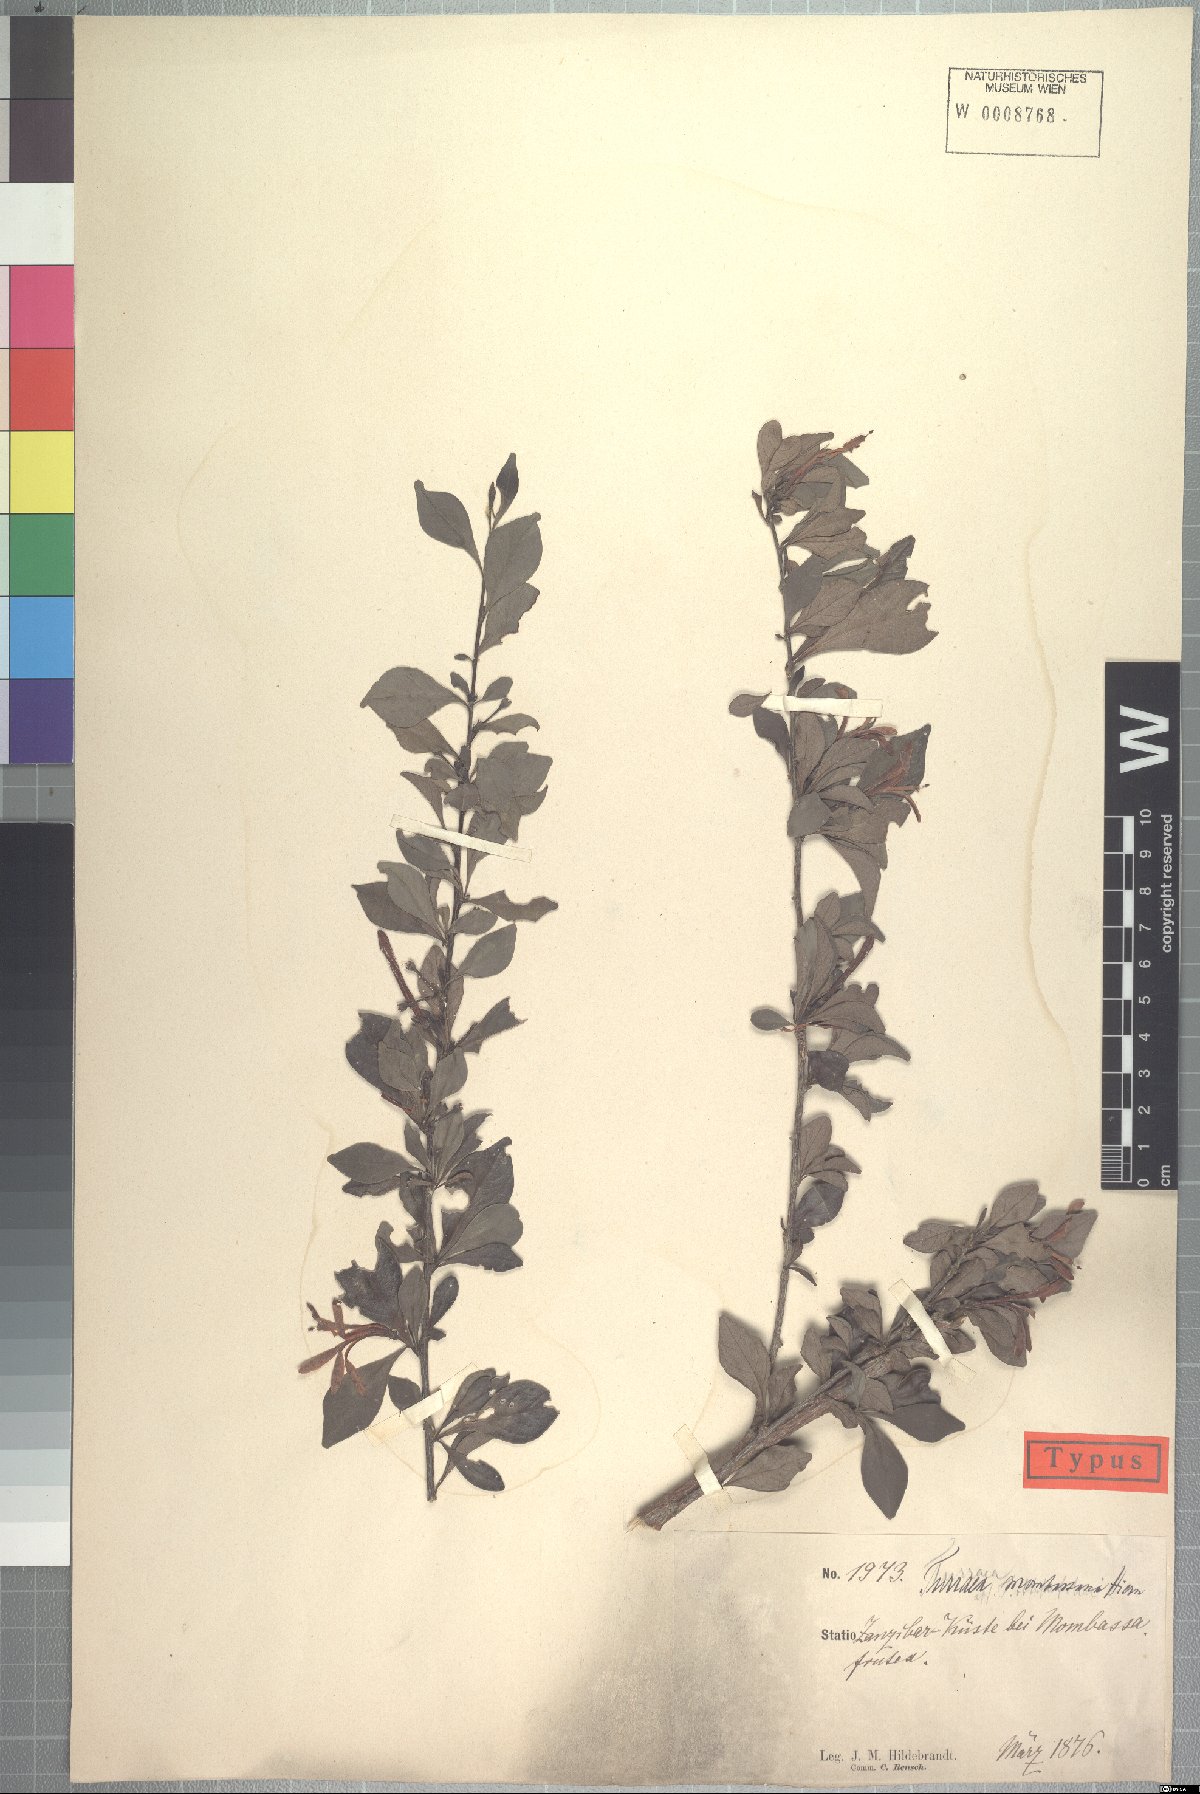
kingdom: Plantae
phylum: Tracheophyta
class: Magnoliopsida
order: Sapindales
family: Meliaceae
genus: Turraea
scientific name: Turraea mombassana
